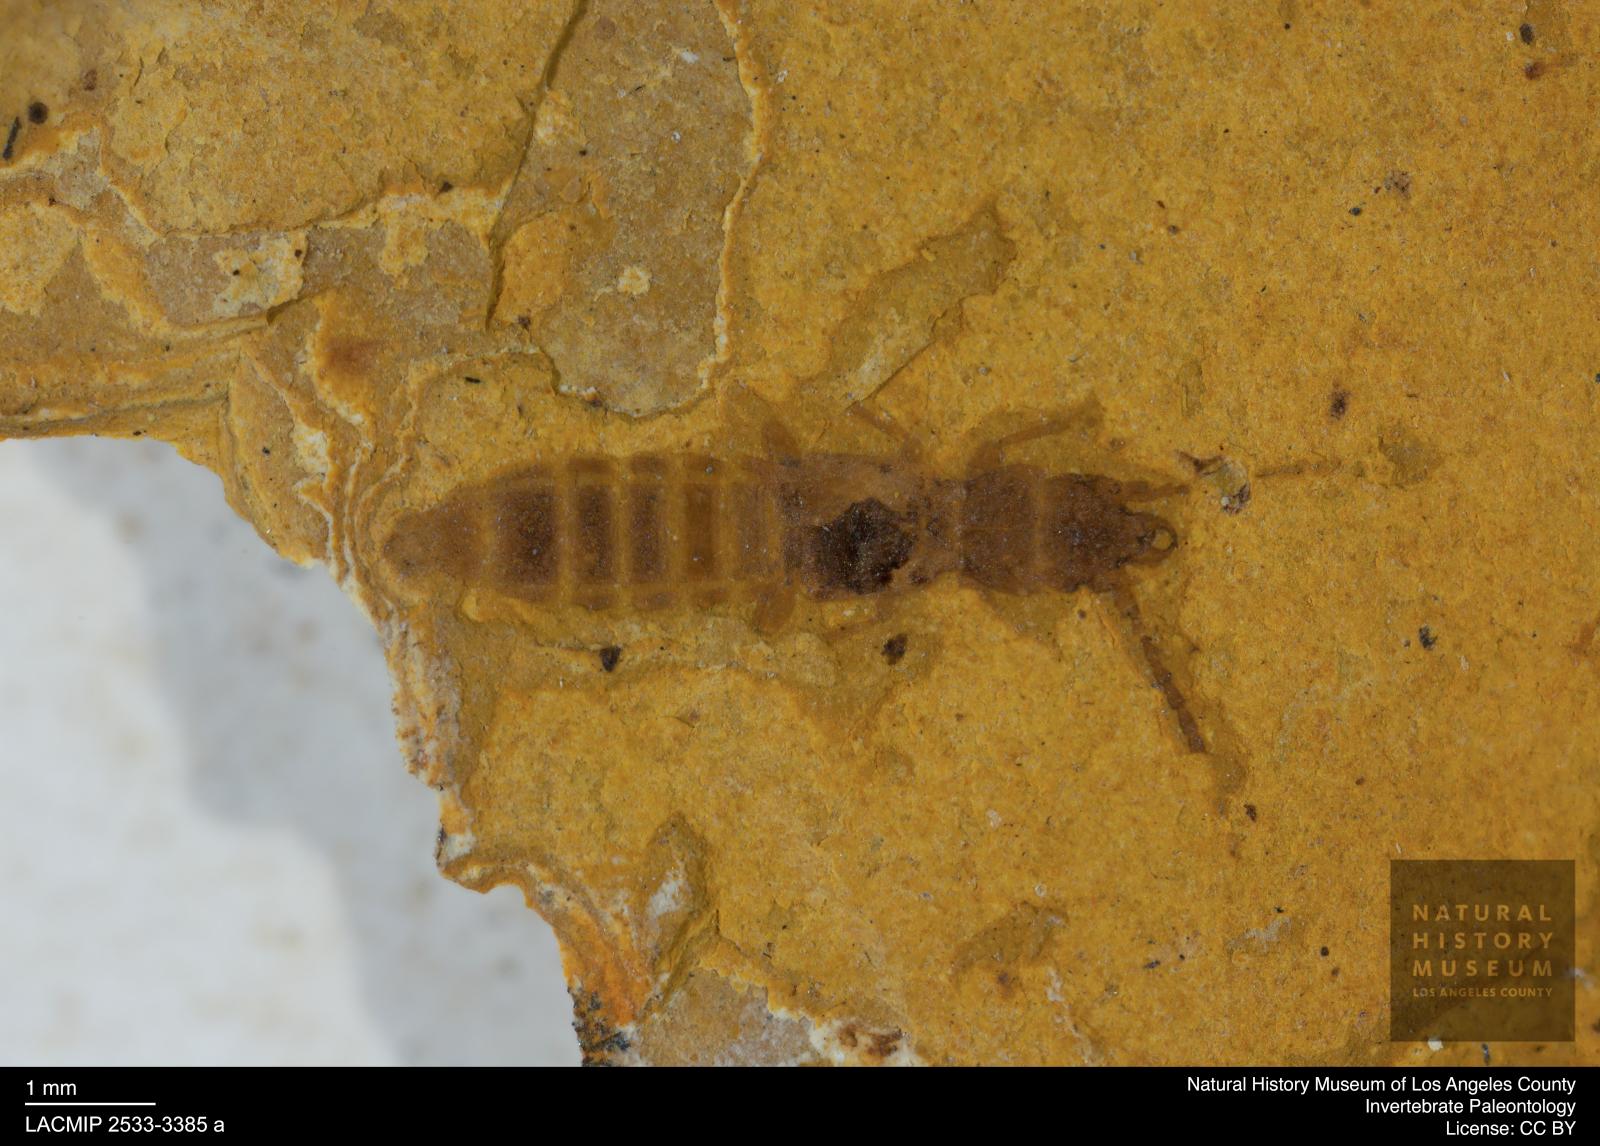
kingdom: Animalia
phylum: Arthropoda
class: Insecta
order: Coleoptera
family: Staphylinidae
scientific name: Staphylinidae
